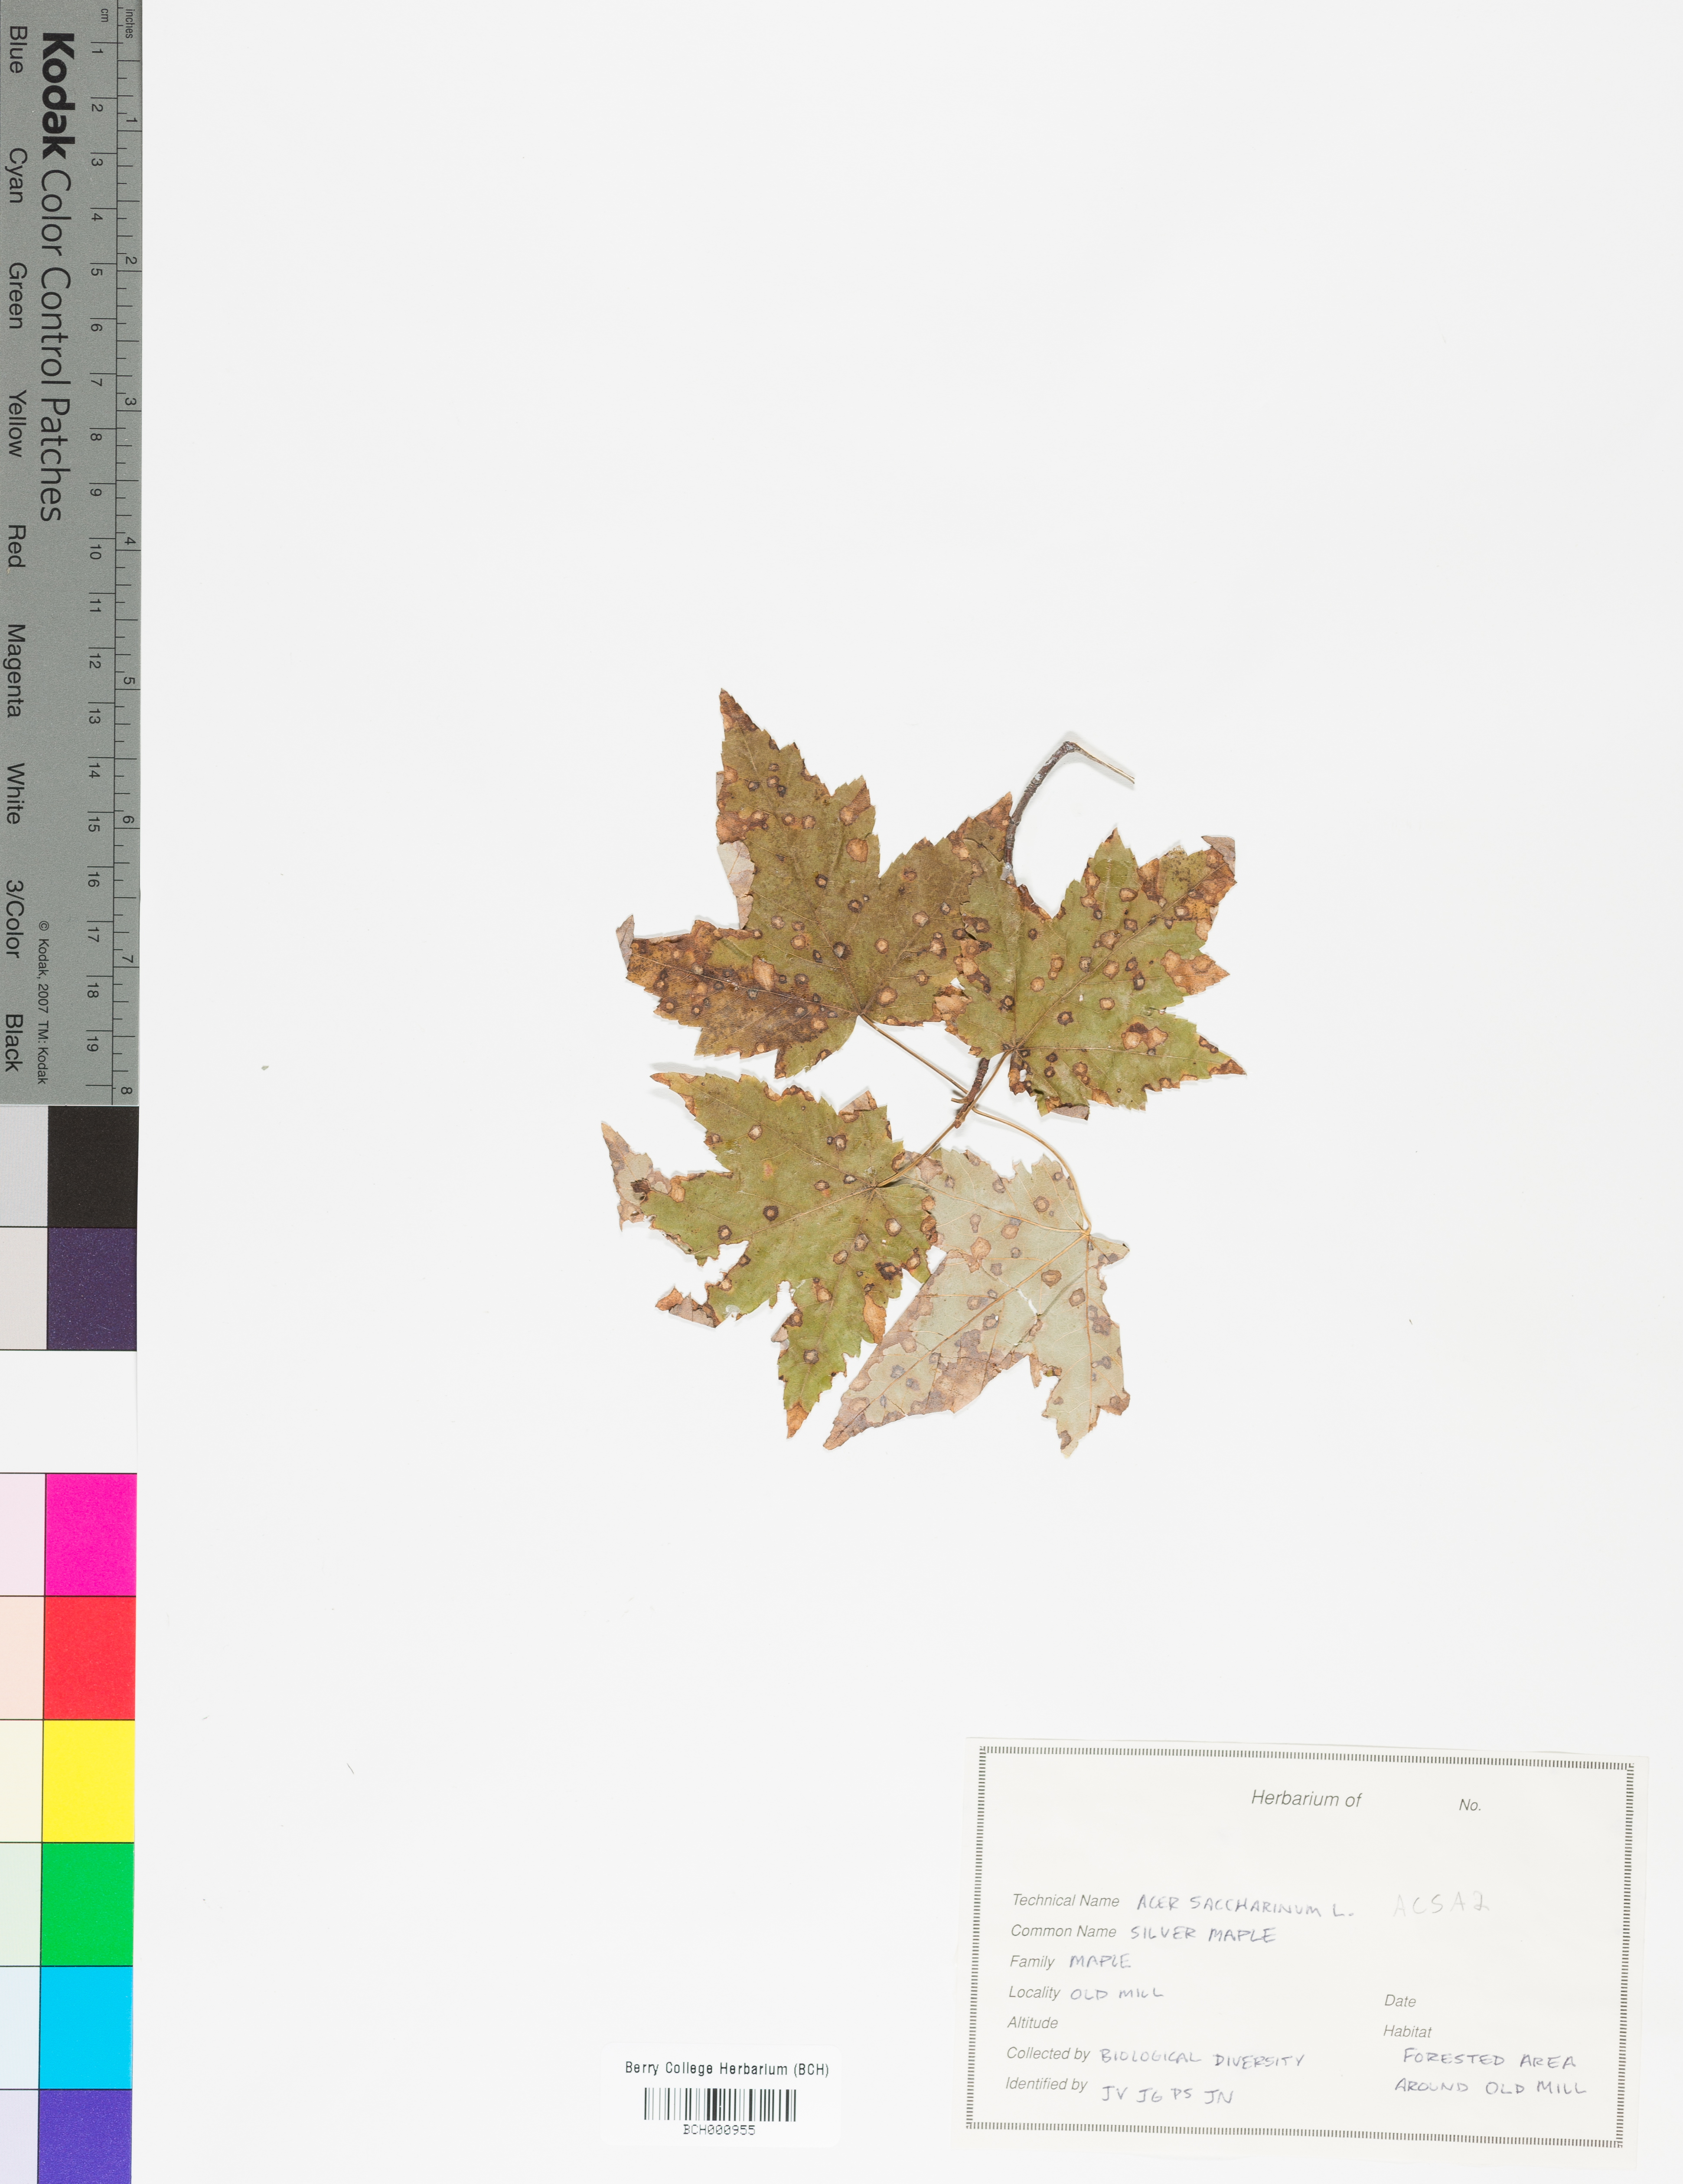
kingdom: Plantae
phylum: Tracheophyta
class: Magnoliopsida
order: Sapindales
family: Sapindaceae
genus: Acer
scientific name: Acer saccharinum
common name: Silver maple
